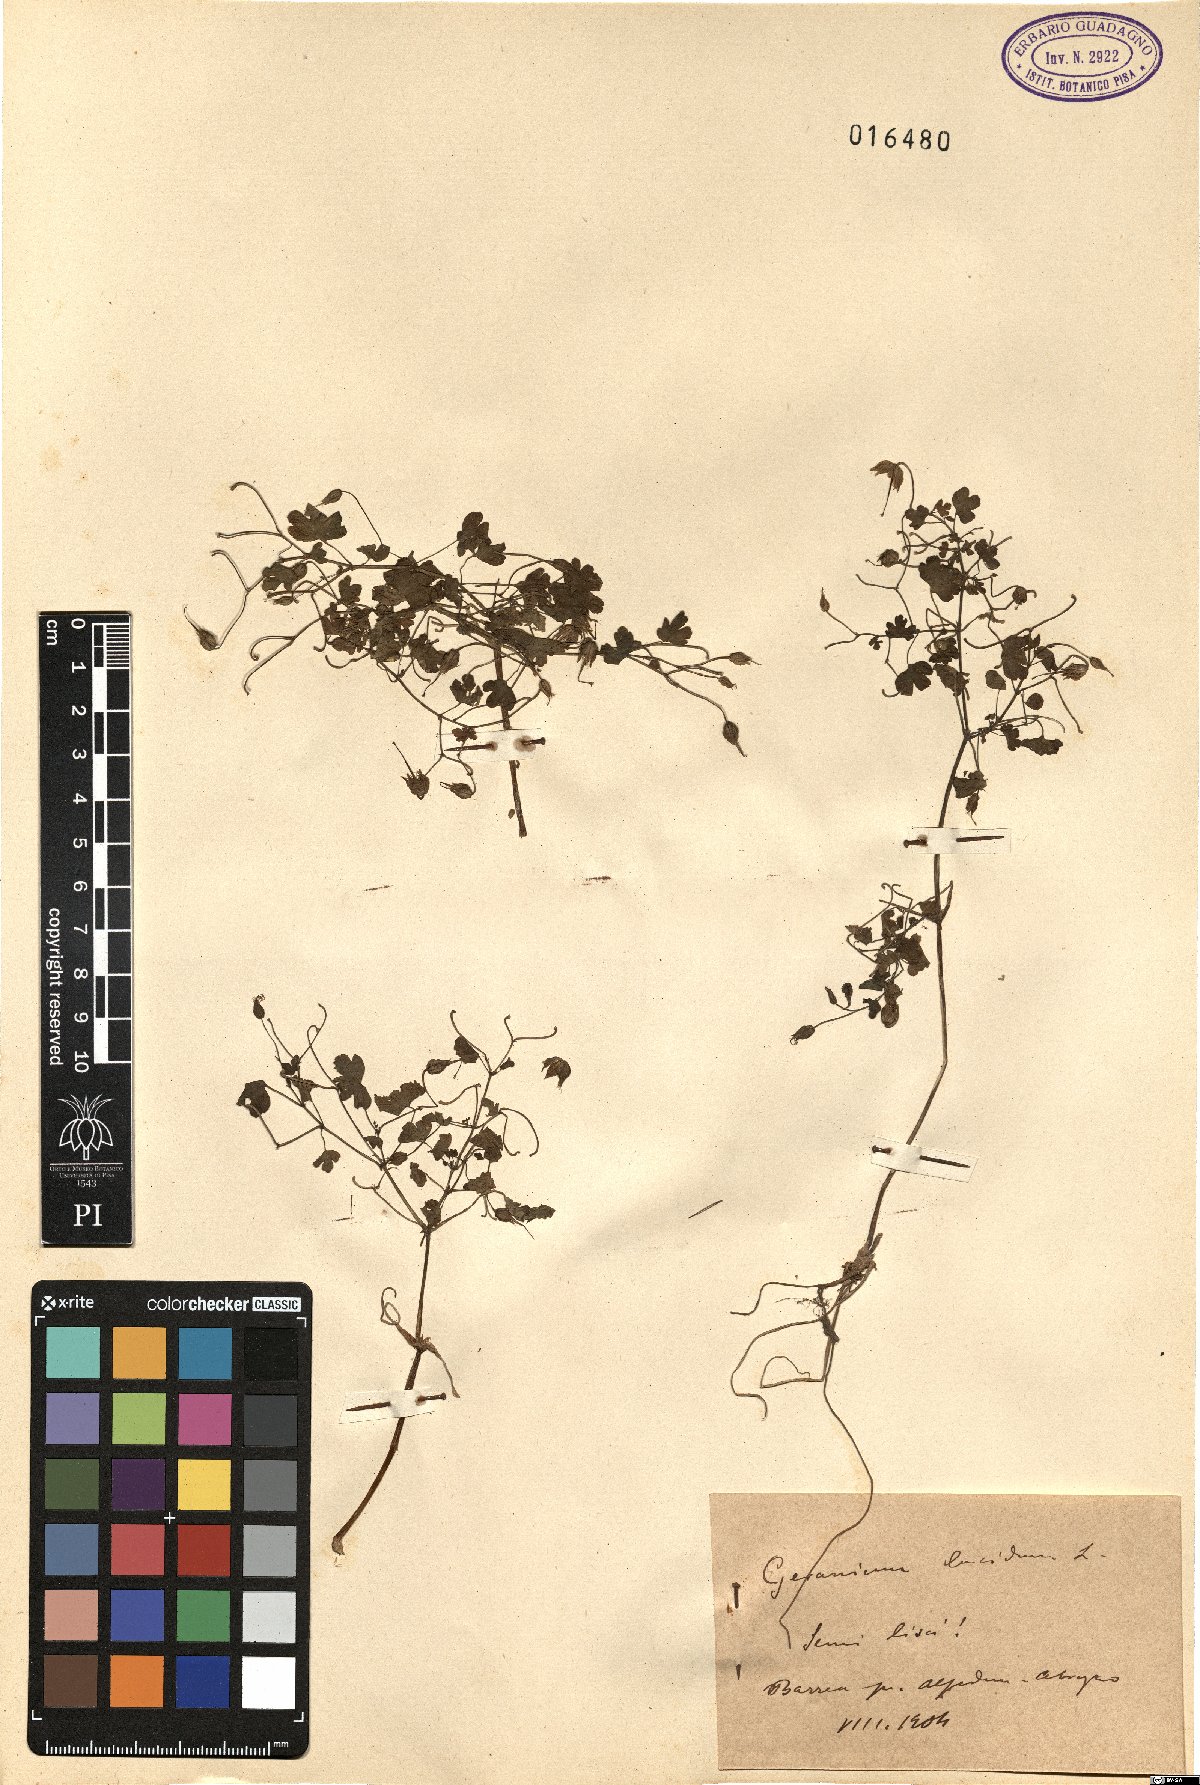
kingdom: Plantae
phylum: Tracheophyta
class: Magnoliopsida
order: Geraniales
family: Geraniaceae
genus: Geranium
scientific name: Geranium lucidum
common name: Shining crane's-bill
